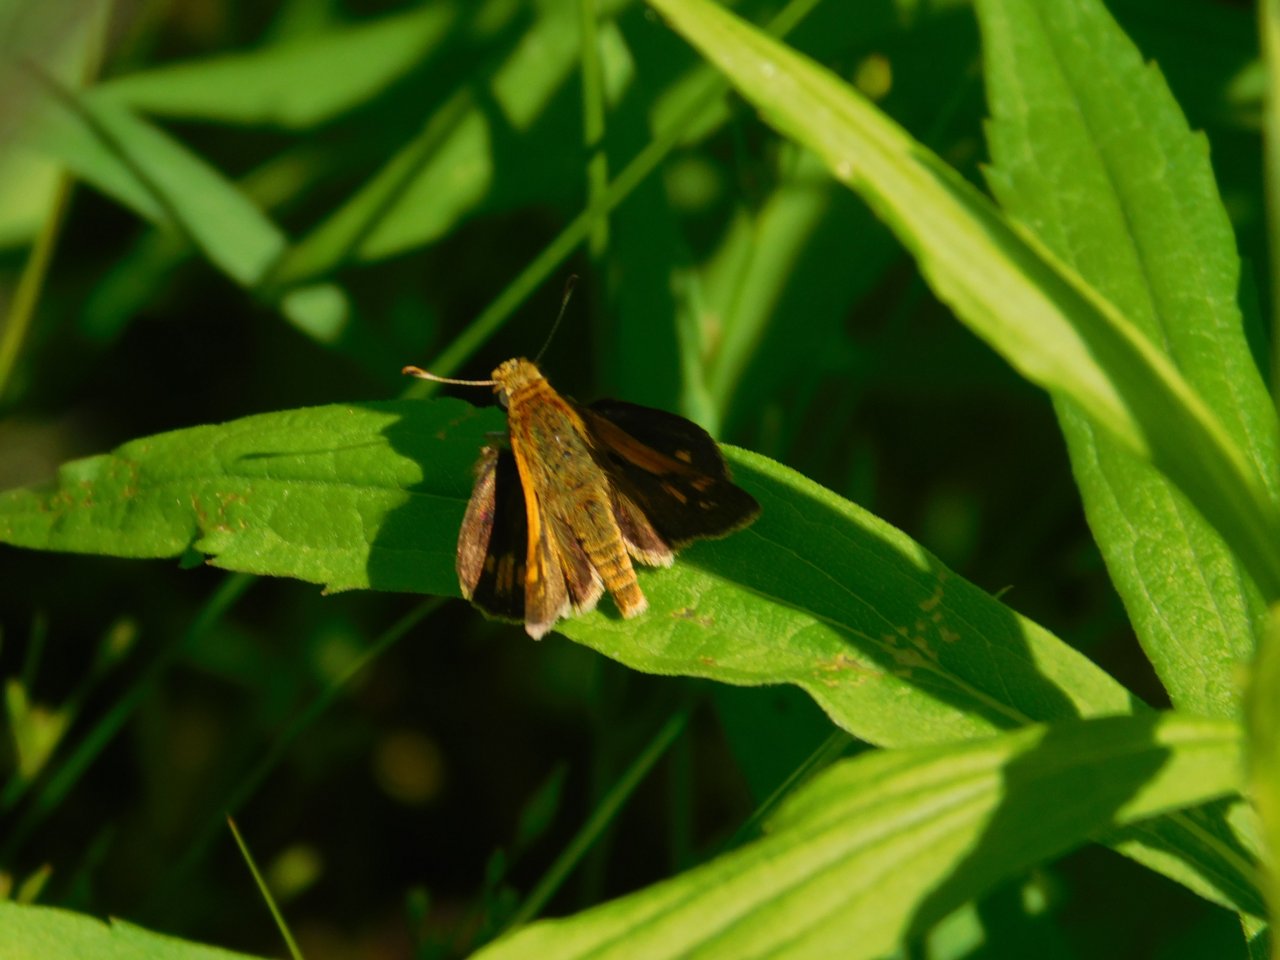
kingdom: Animalia
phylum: Arthropoda
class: Insecta
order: Lepidoptera
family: Hesperiidae
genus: Polites
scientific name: Polites coras
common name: Peck's Skipper
